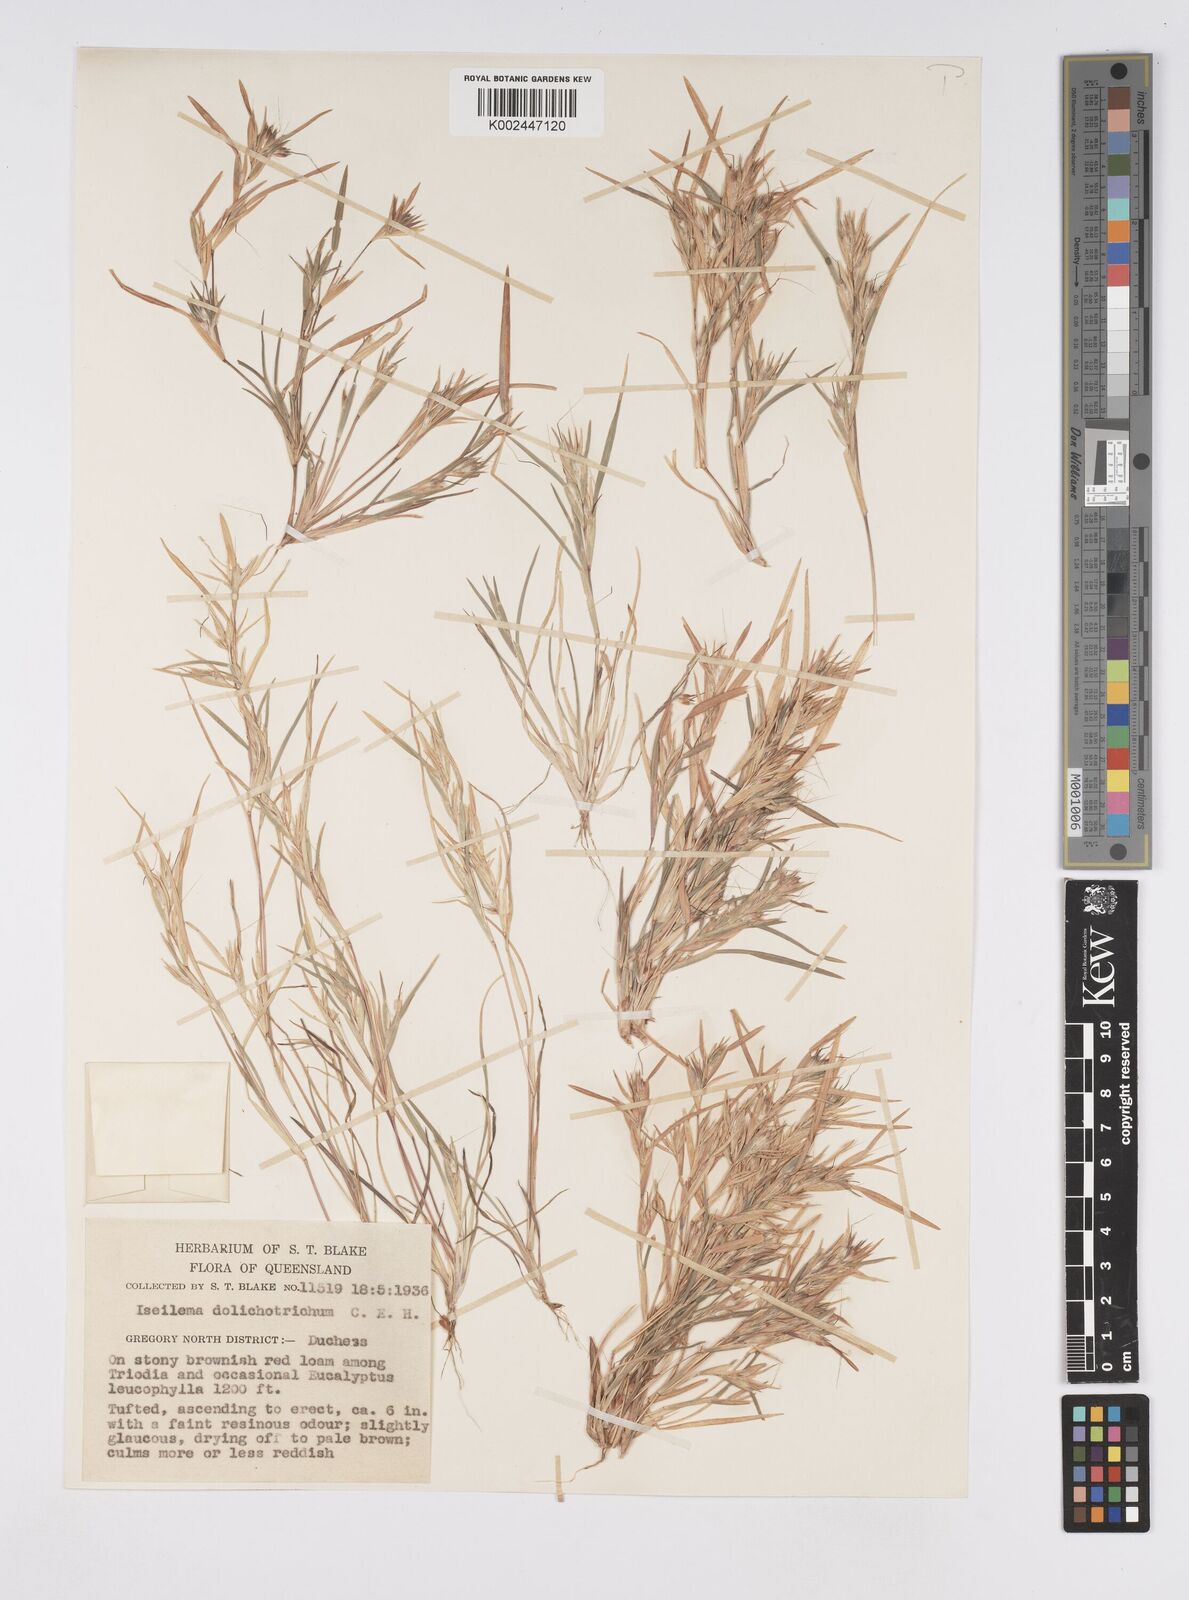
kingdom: Plantae
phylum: Tracheophyta
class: Liliopsida
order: Poales
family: Poaceae
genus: Iseilema
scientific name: Iseilema dolichotrichum
